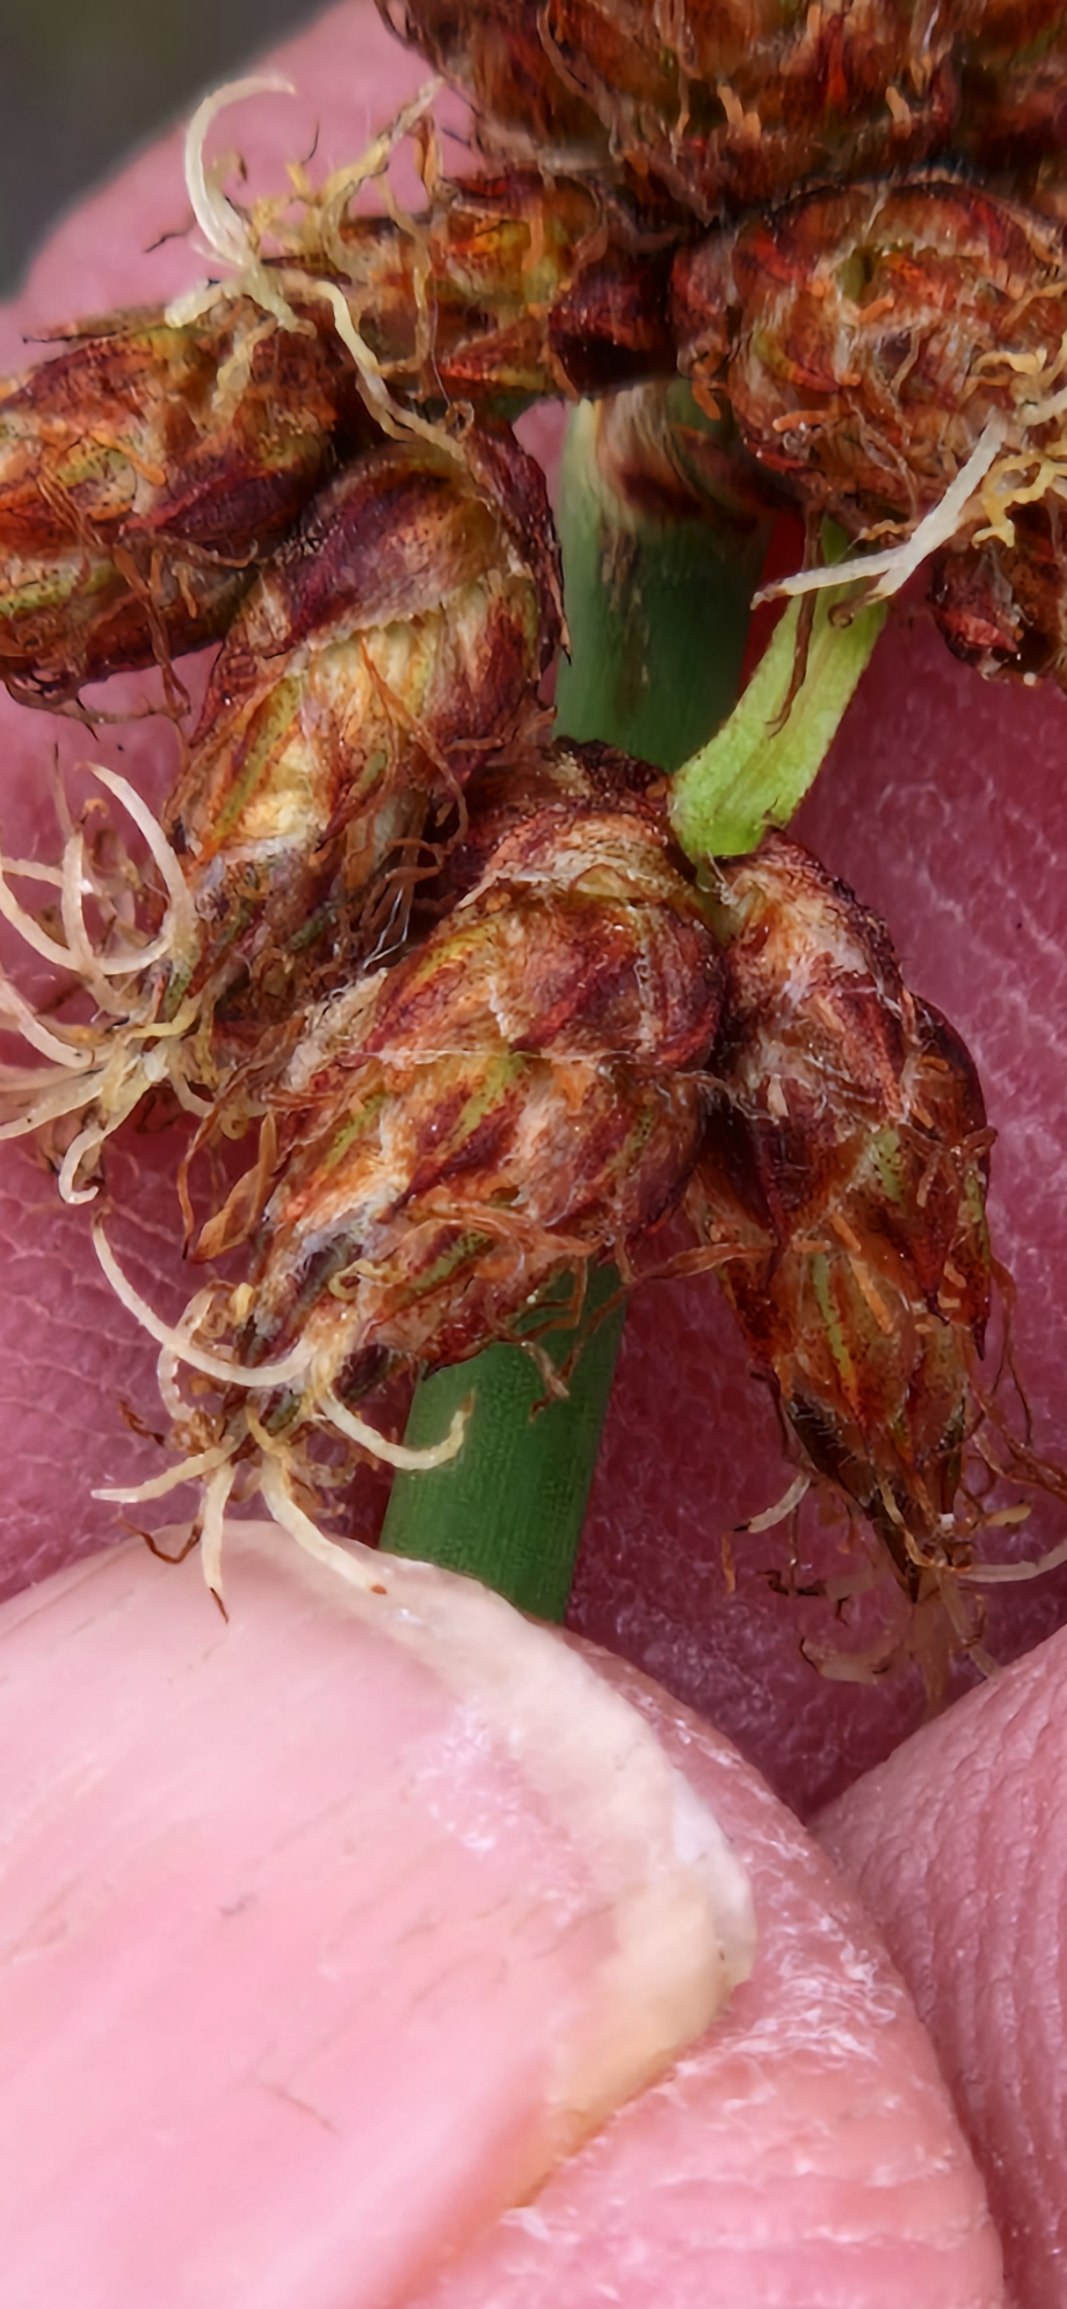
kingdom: Plantae
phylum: Tracheophyta
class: Liliopsida
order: Poales
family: Cyperaceae
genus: Schoenoplectus
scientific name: Schoenoplectus tabernaemontani
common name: Blågrøn kogleaks
